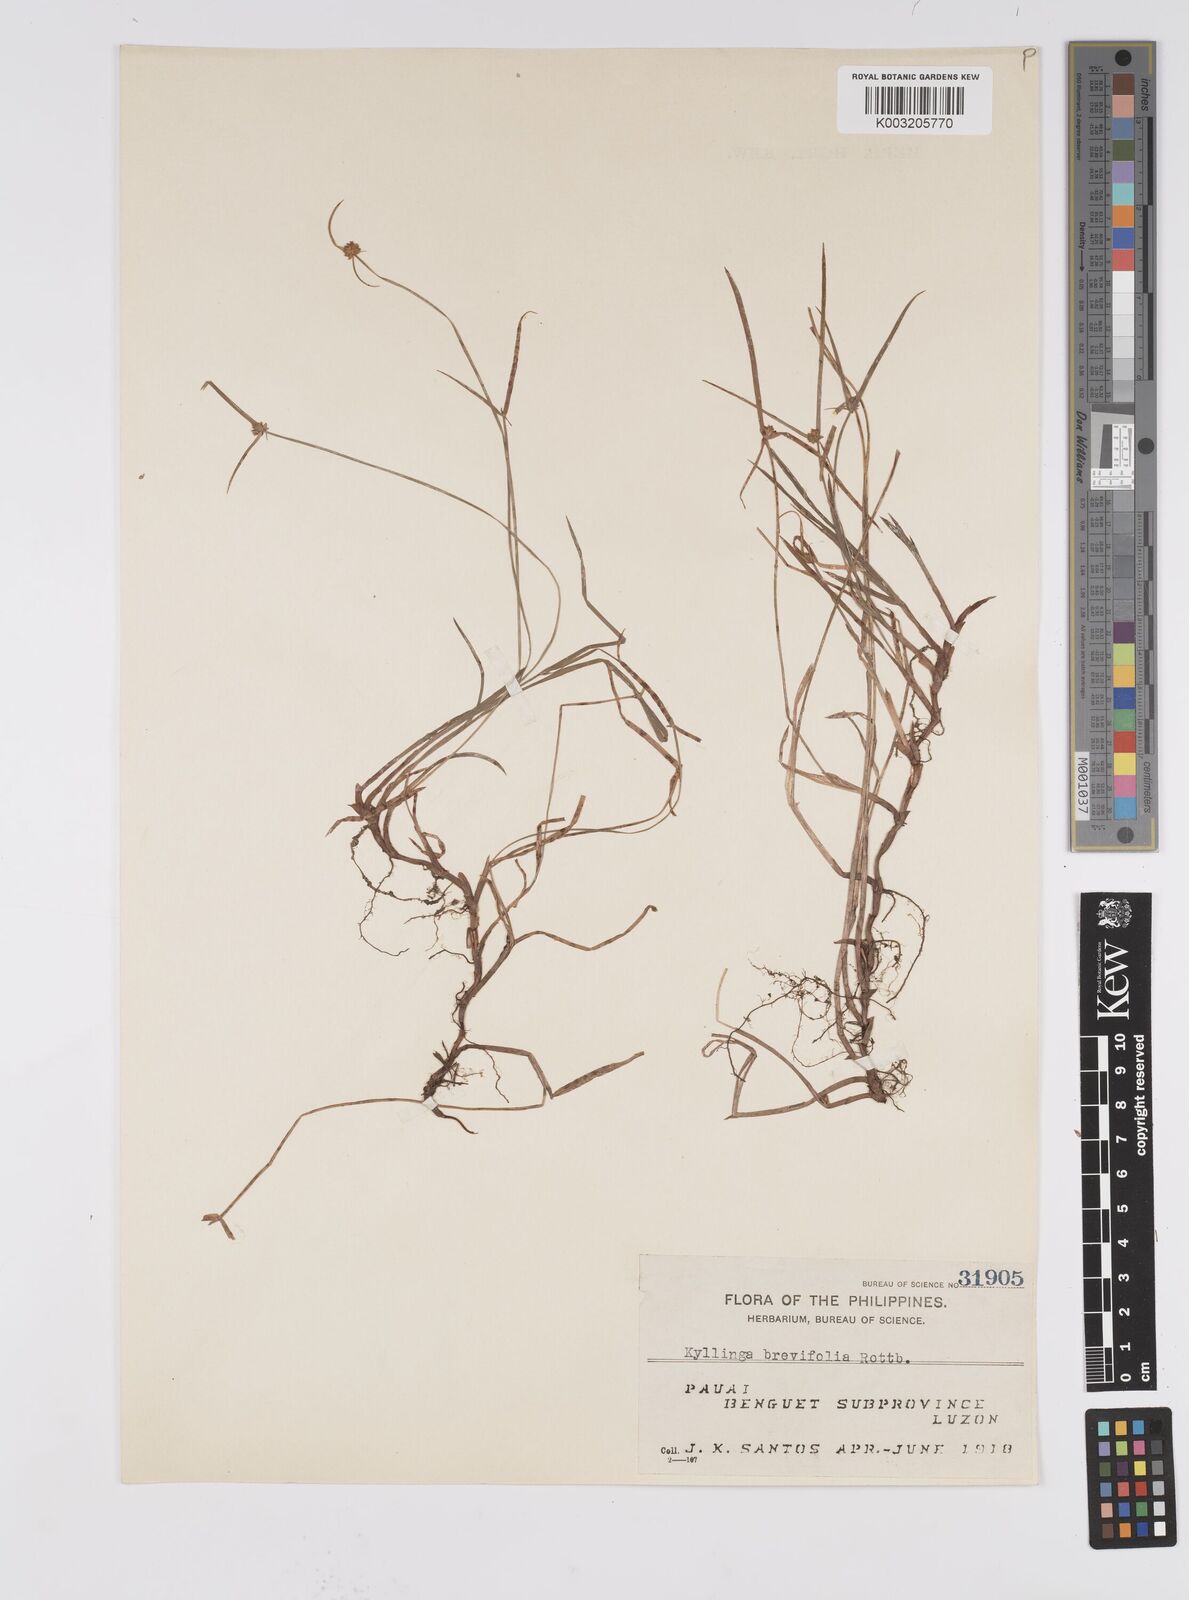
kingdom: Plantae
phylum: Tracheophyta
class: Liliopsida
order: Poales
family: Cyperaceae
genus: Cyperus
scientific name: Cyperus brevifolius
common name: Globe kyllinga
